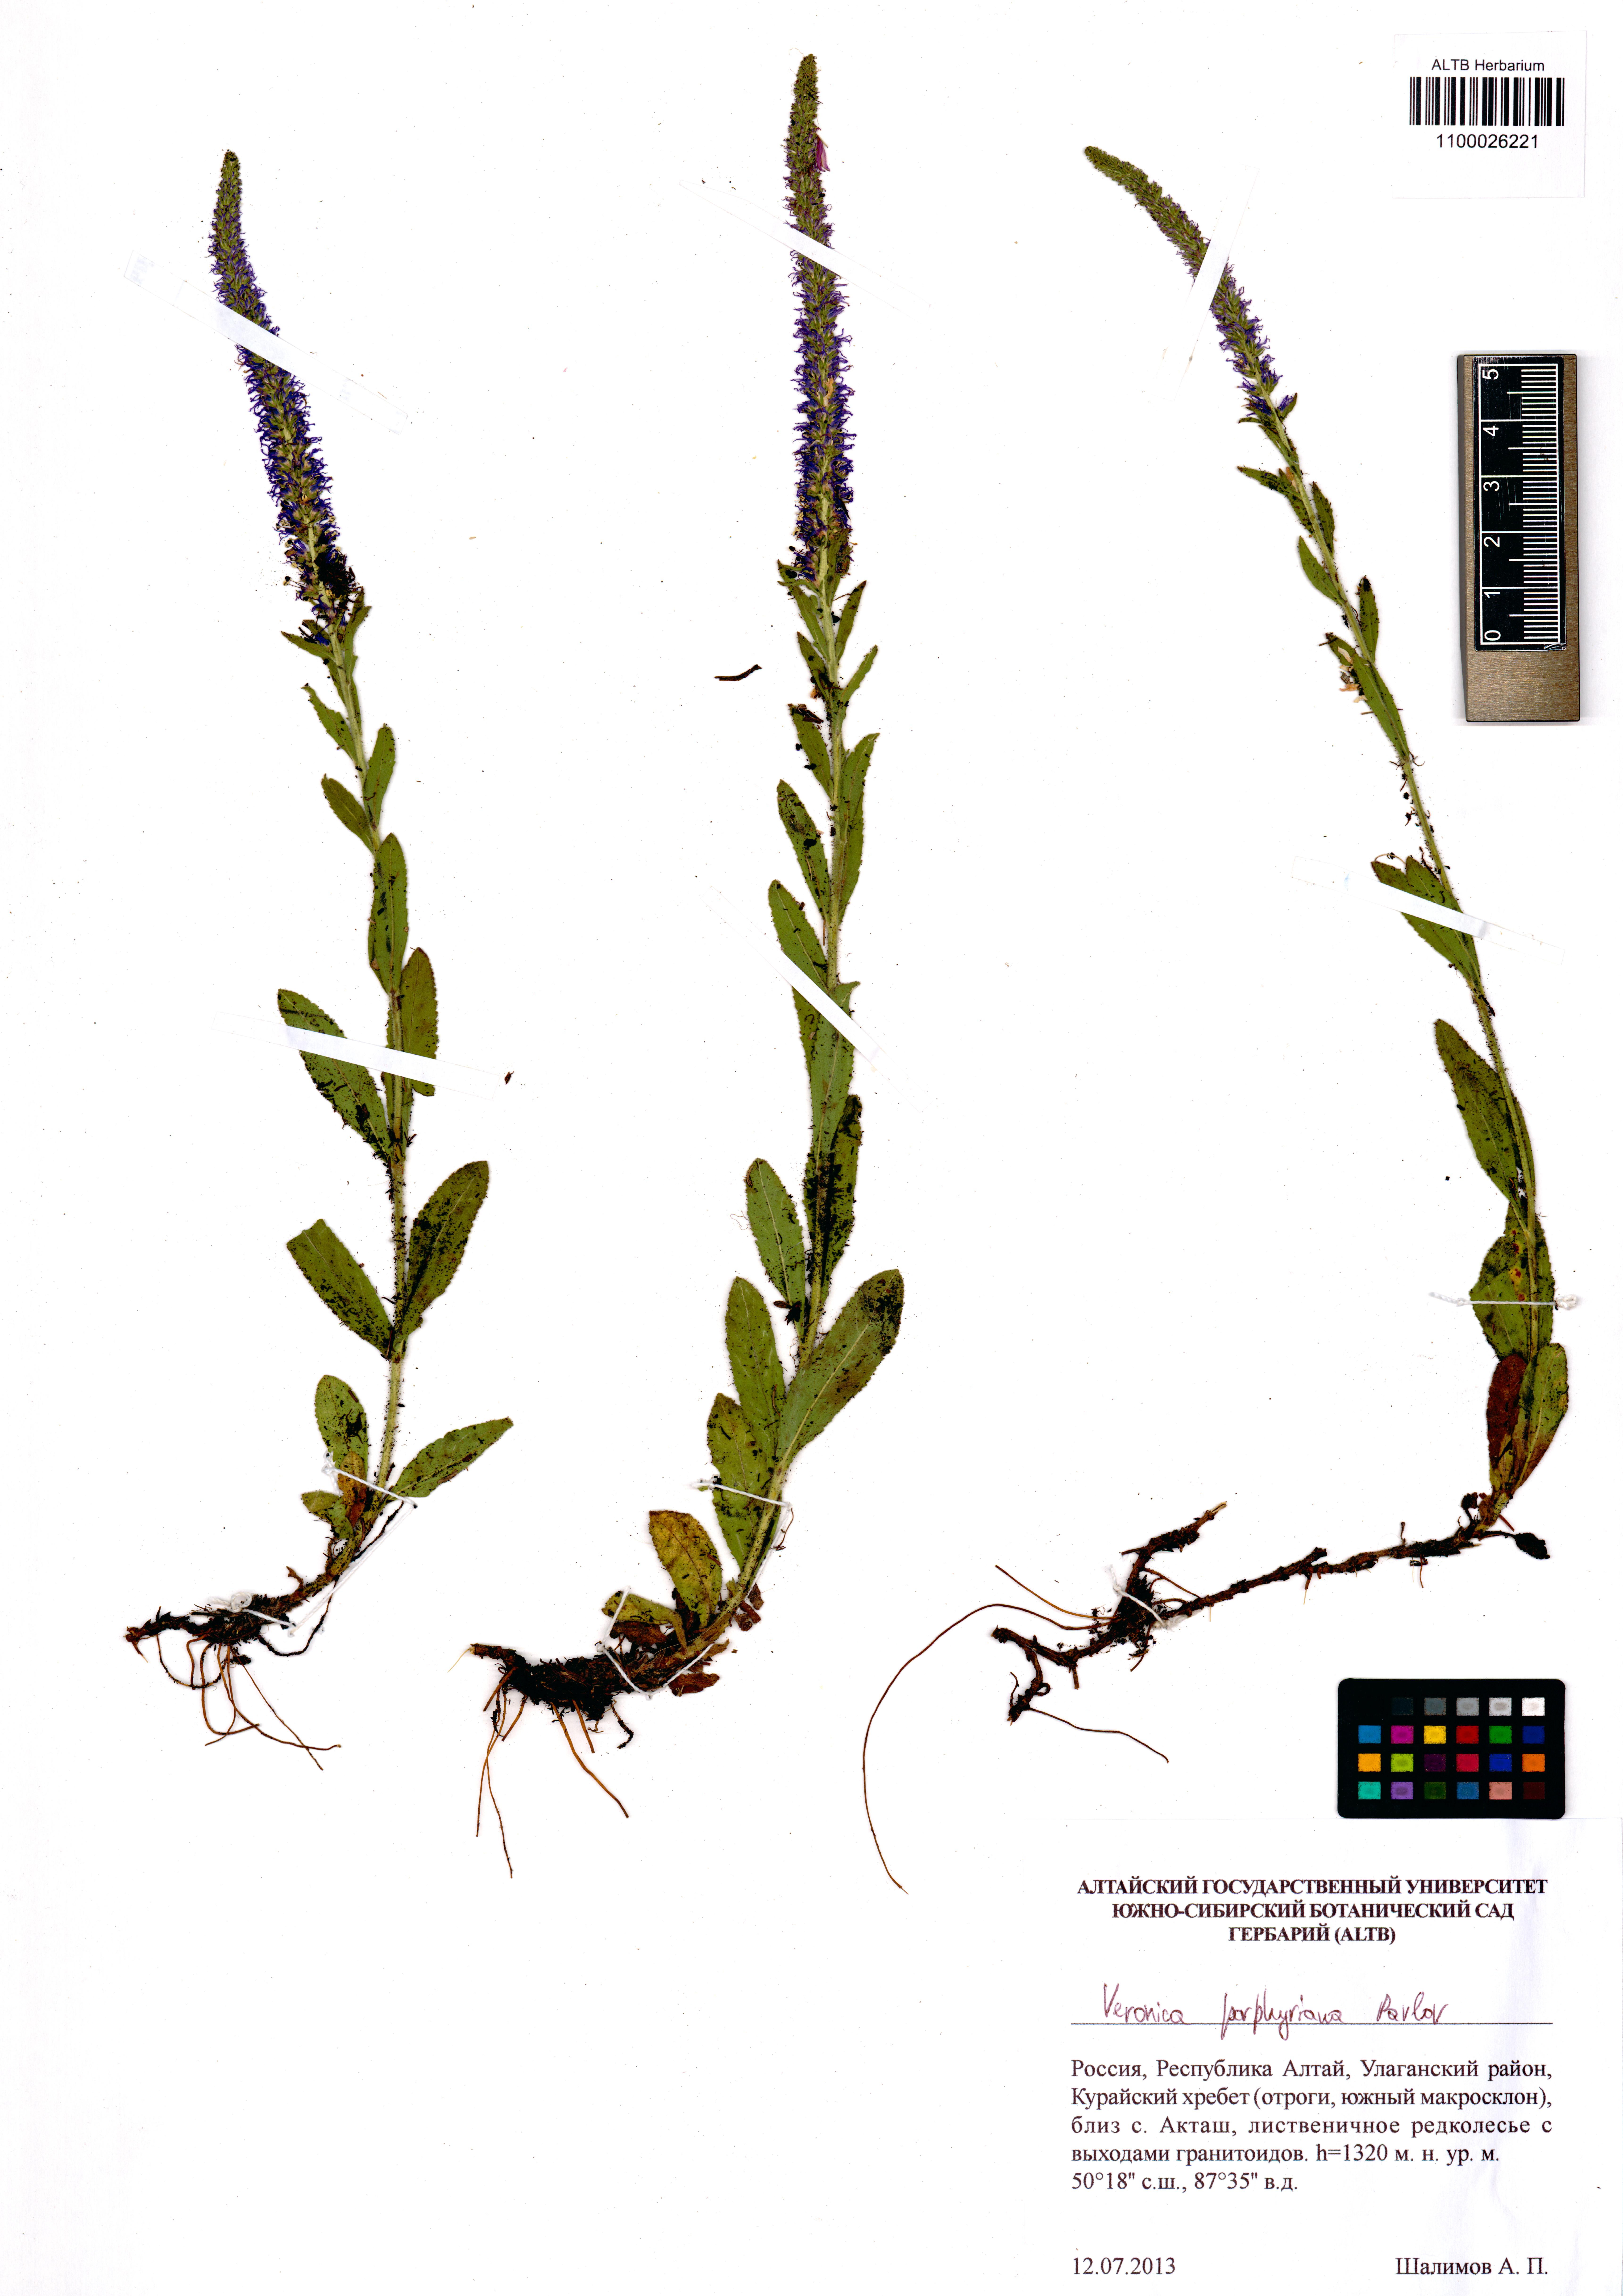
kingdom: Plantae
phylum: Tracheophyta
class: Magnoliopsida
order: Lamiales
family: Plantaginaceae
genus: Veronica
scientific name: Veronica porphyriana
